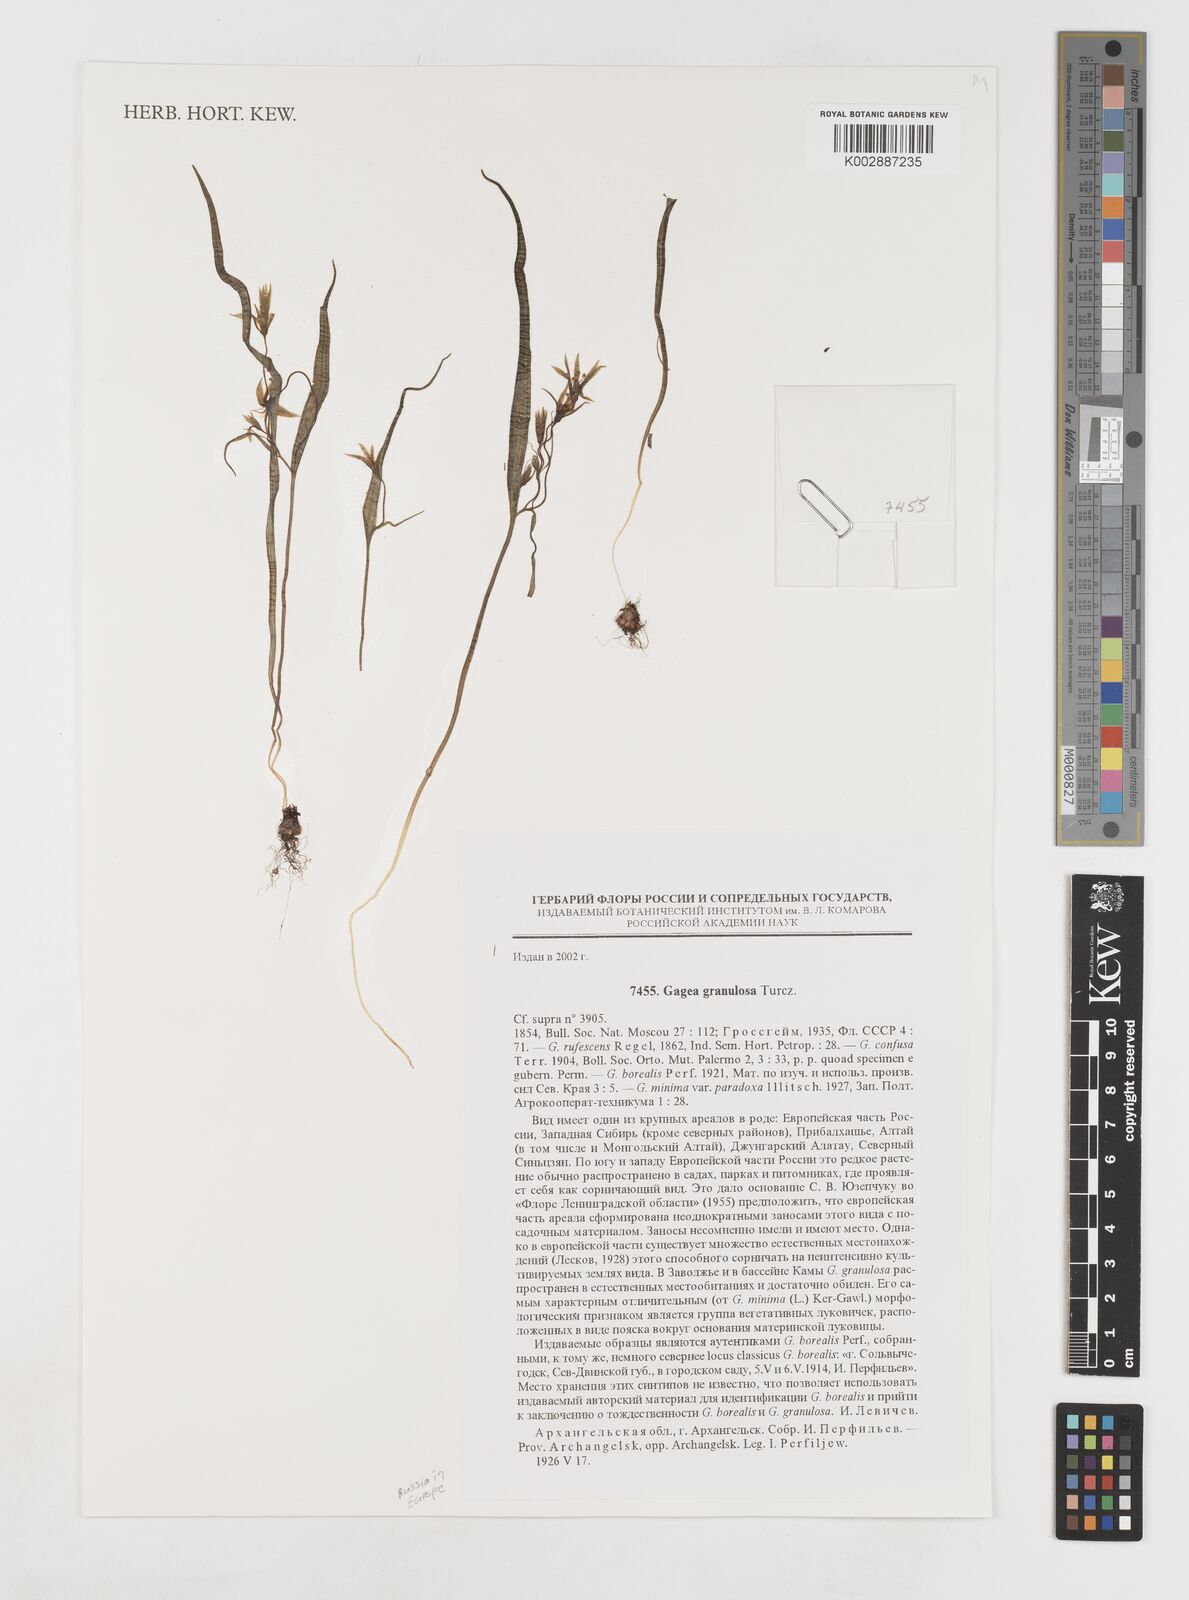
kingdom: Plantae
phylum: Tracheophyta
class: Liliopsida
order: Liliales
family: Liliaceae
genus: Gagea
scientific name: Gagea granulosa
